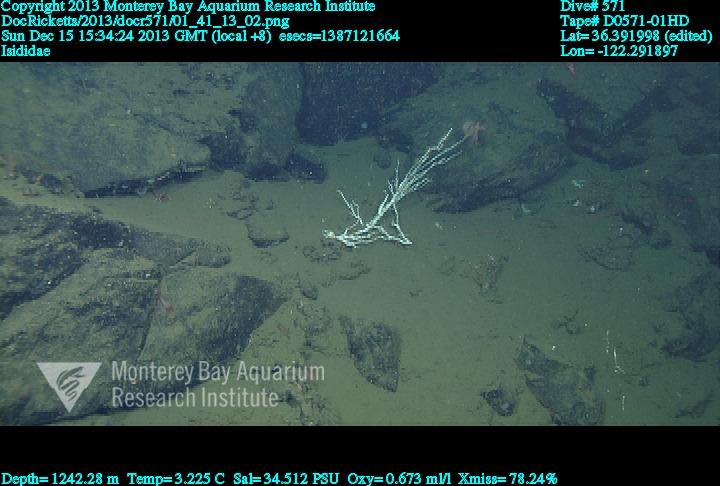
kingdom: Animalia
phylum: Cnidaria
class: Anthozoa
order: Scleralcyonacea
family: Keratoisididae
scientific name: Keratoisididae
